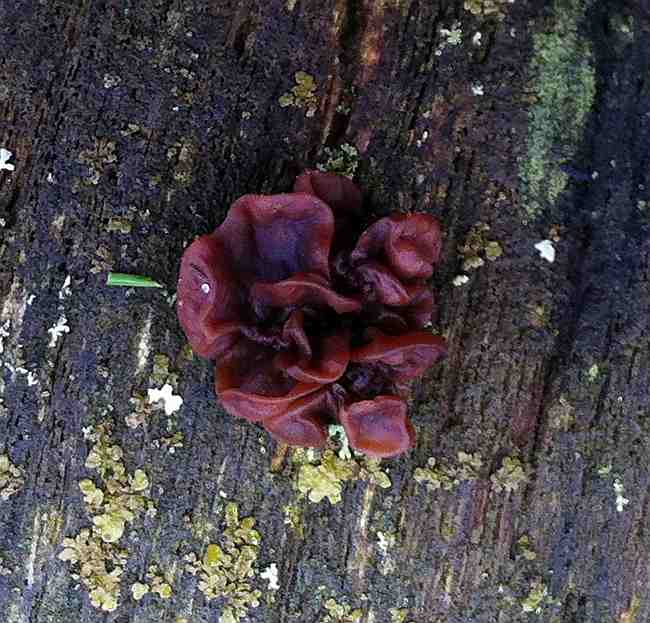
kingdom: Fungi
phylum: Basidiomycota
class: Tremellomycetes
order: Tremellales
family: Tremellaceae
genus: Phaeotremella
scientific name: Phaeotremella frondosa
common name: kæmpe-bævresvamp
